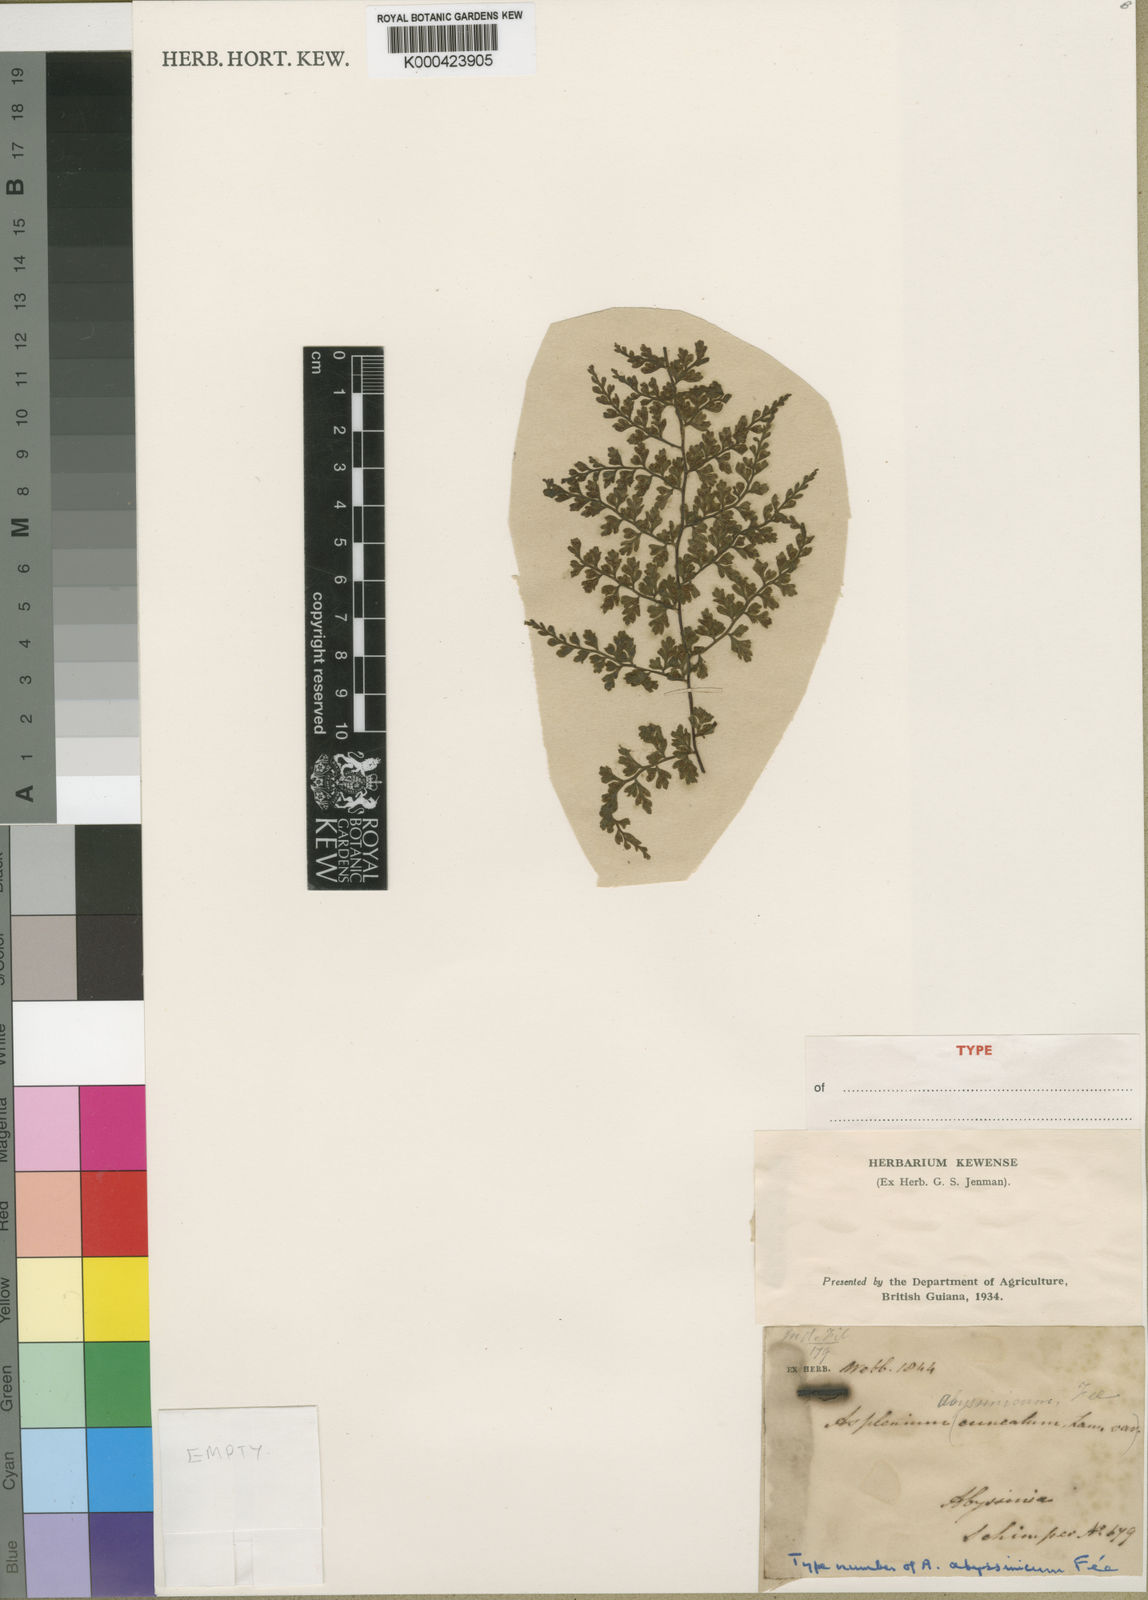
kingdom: Plantae
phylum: Tracheophyta
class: Polypodiopsida
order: Polypodiales
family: Aspleniaceae
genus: Asplenium
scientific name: Asplenium
